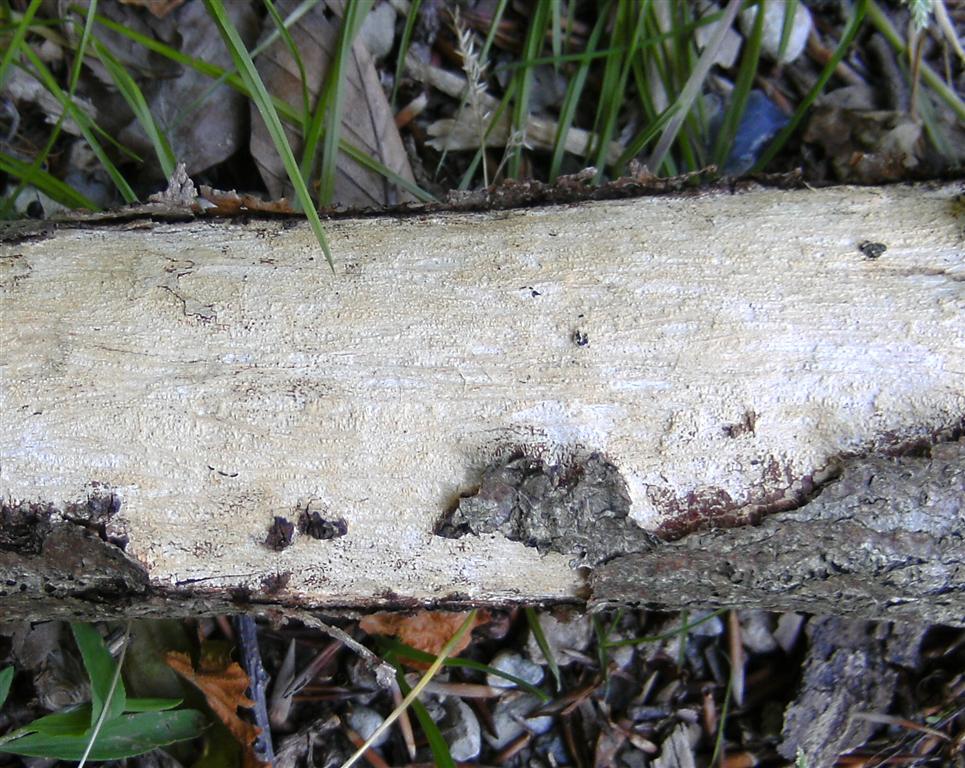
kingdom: Fungi
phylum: Basidiomycota
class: Agaricomycetes
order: Corticiales
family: Vuilleminiaceae
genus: Vuilleminia
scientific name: Vuilleminia comedens
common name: almindelig barksprænger
